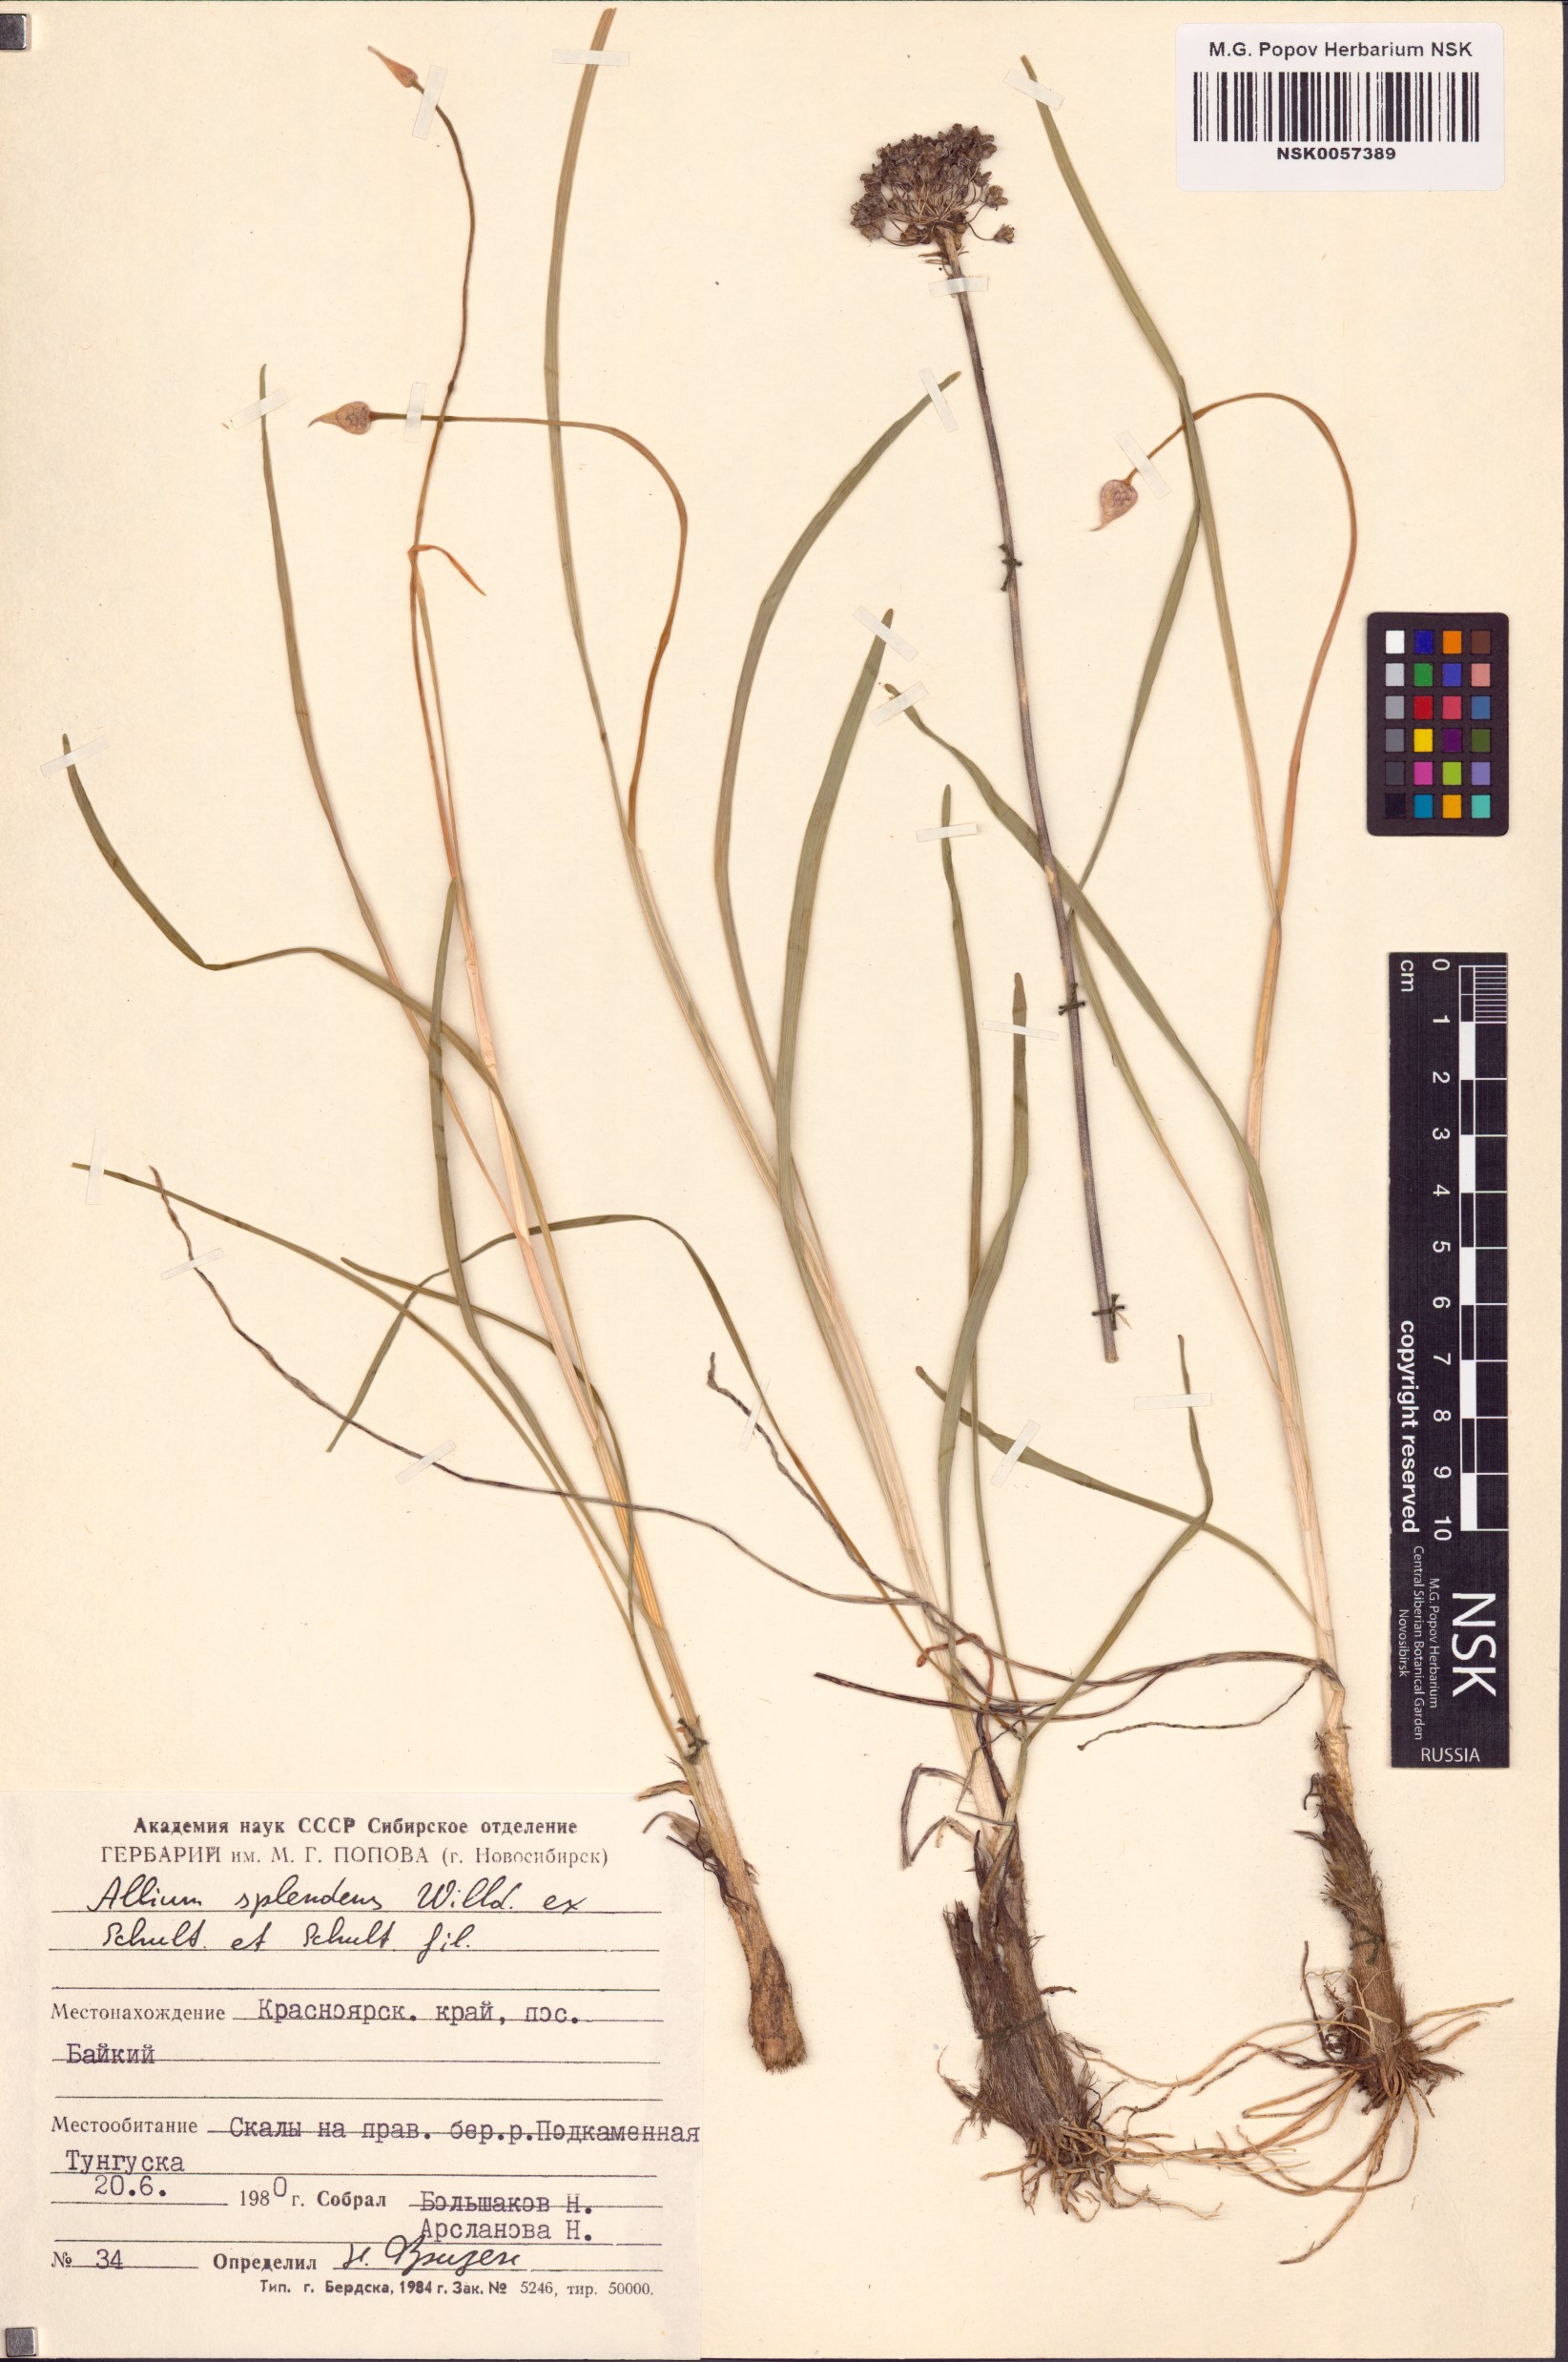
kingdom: Plantae
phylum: Tracheophyta
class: Liliopsida
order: Asparagales
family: Amaryllidaceae
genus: Allium
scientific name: Allium splendens
